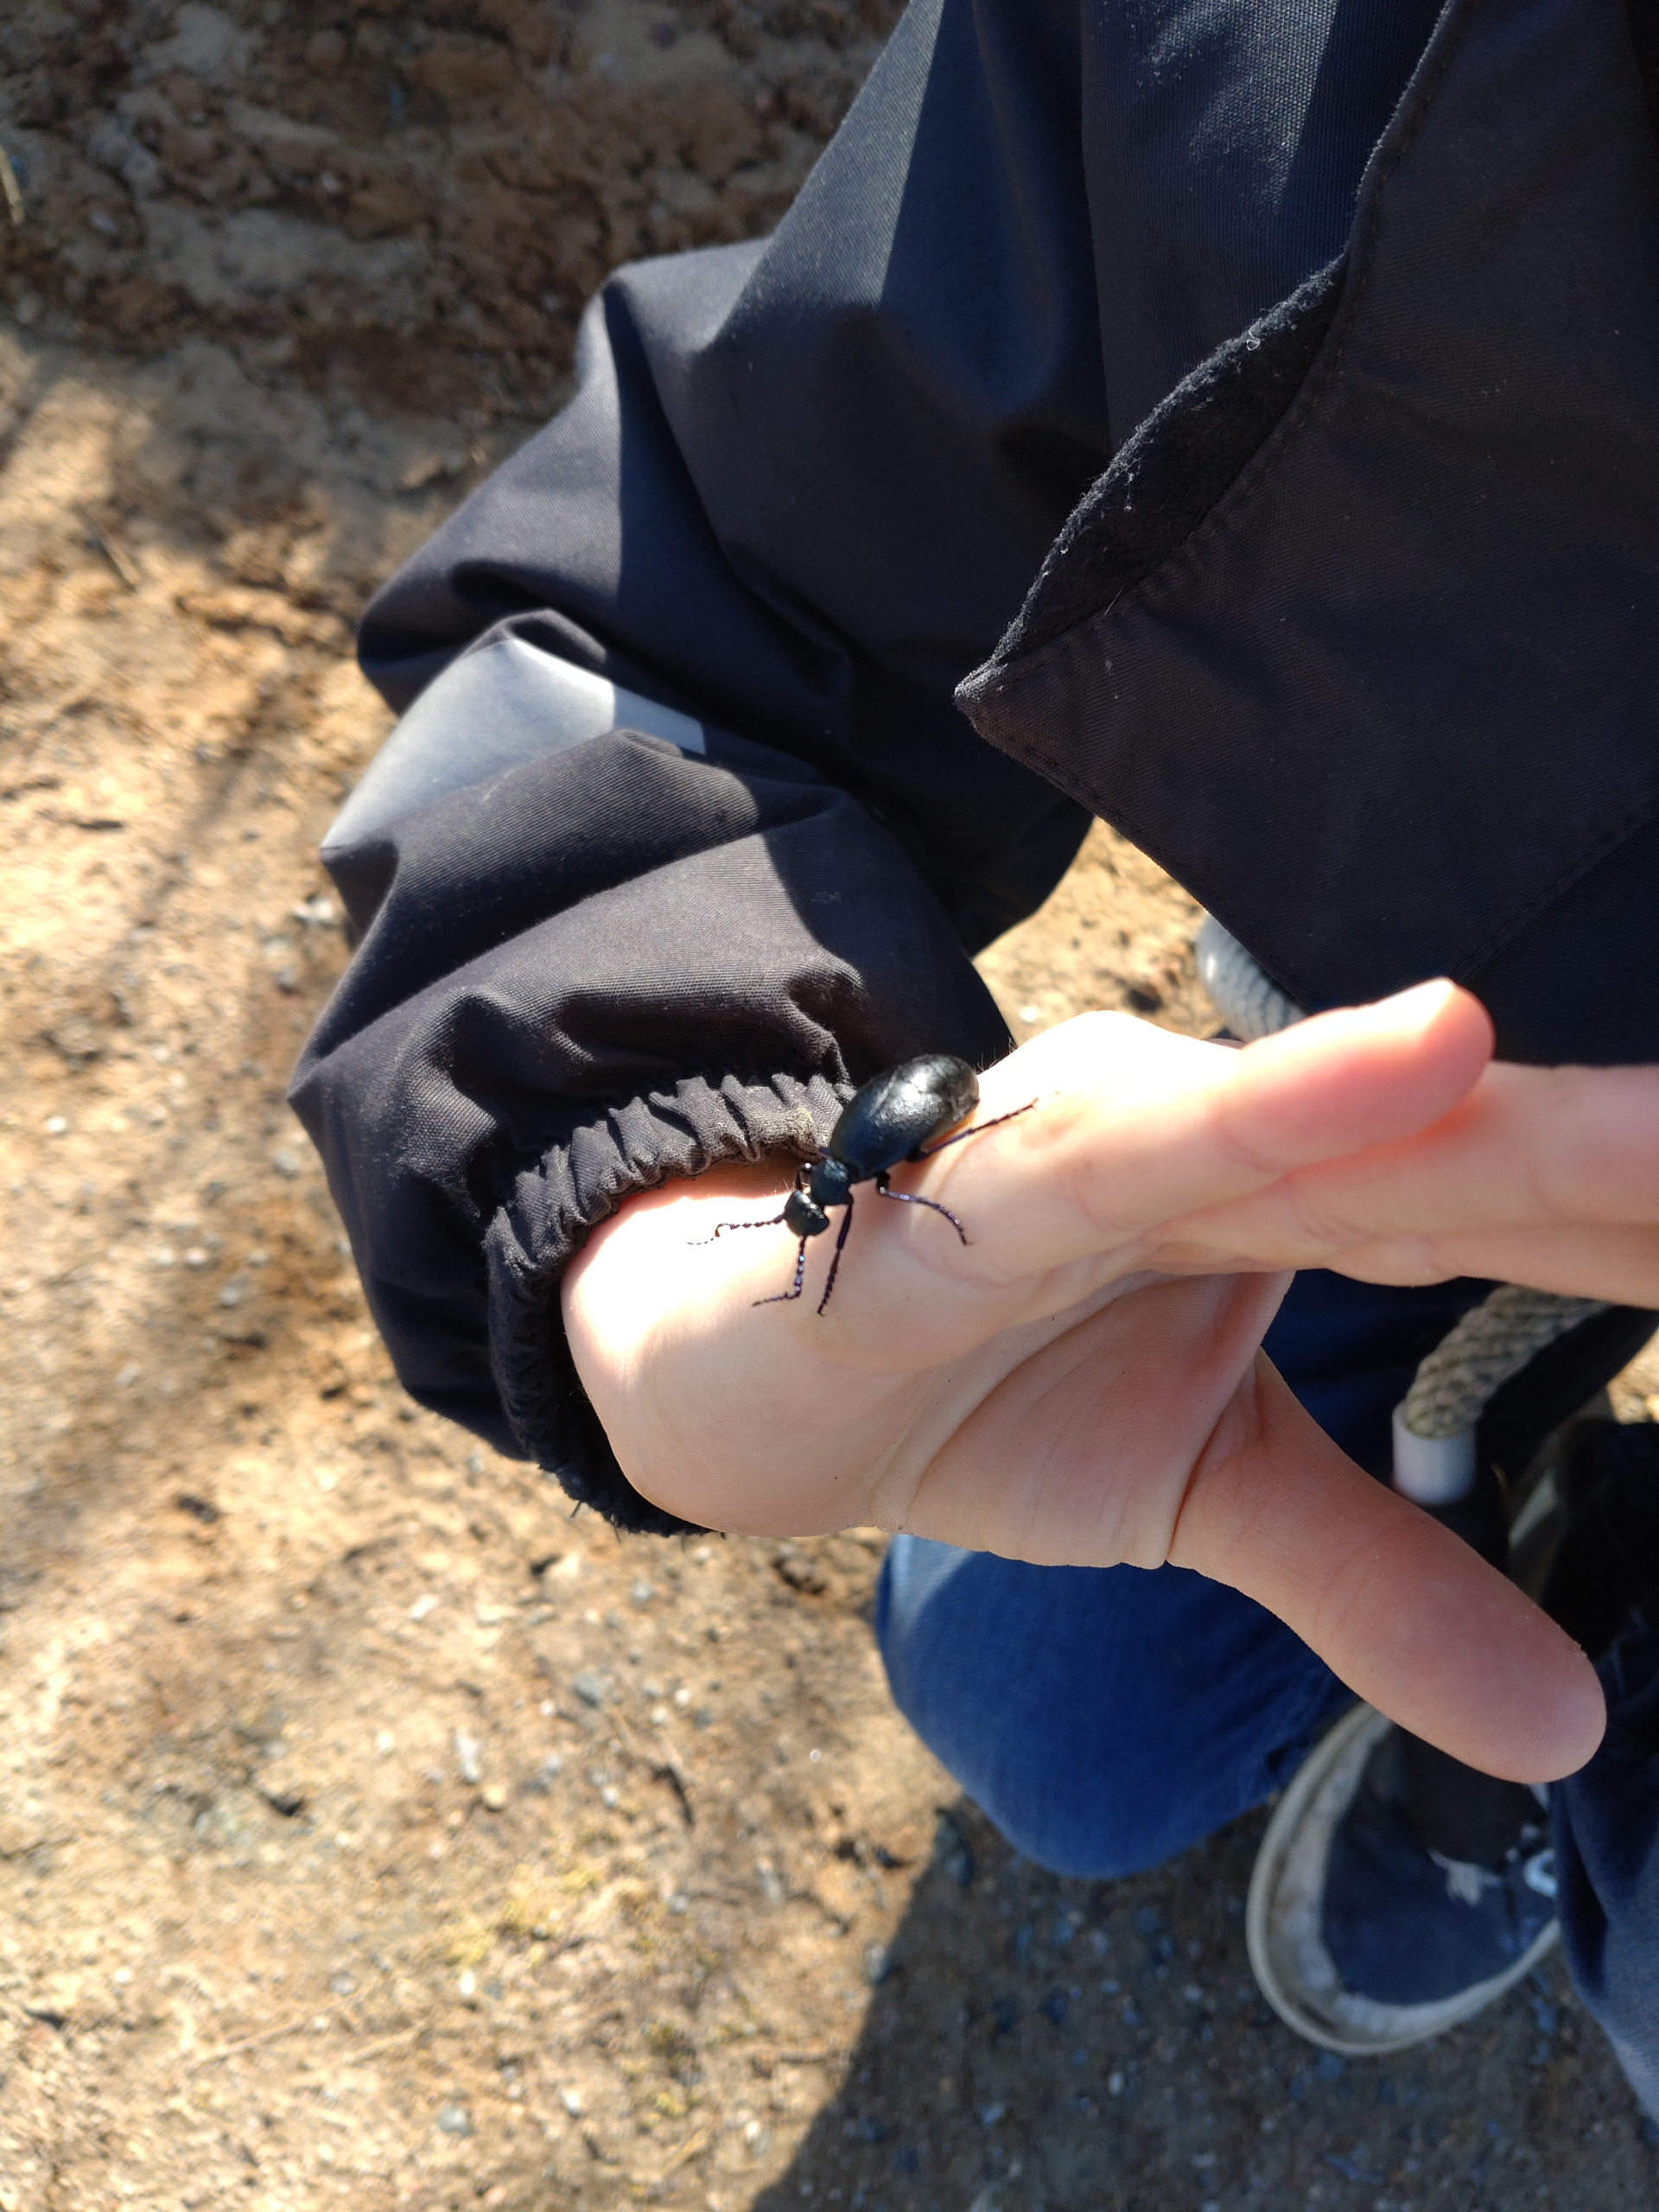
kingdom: Animalia
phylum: Arthropoda
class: Insecta
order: Coleoptera
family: Meloidae
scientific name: Meloidae
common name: Oliebiller
